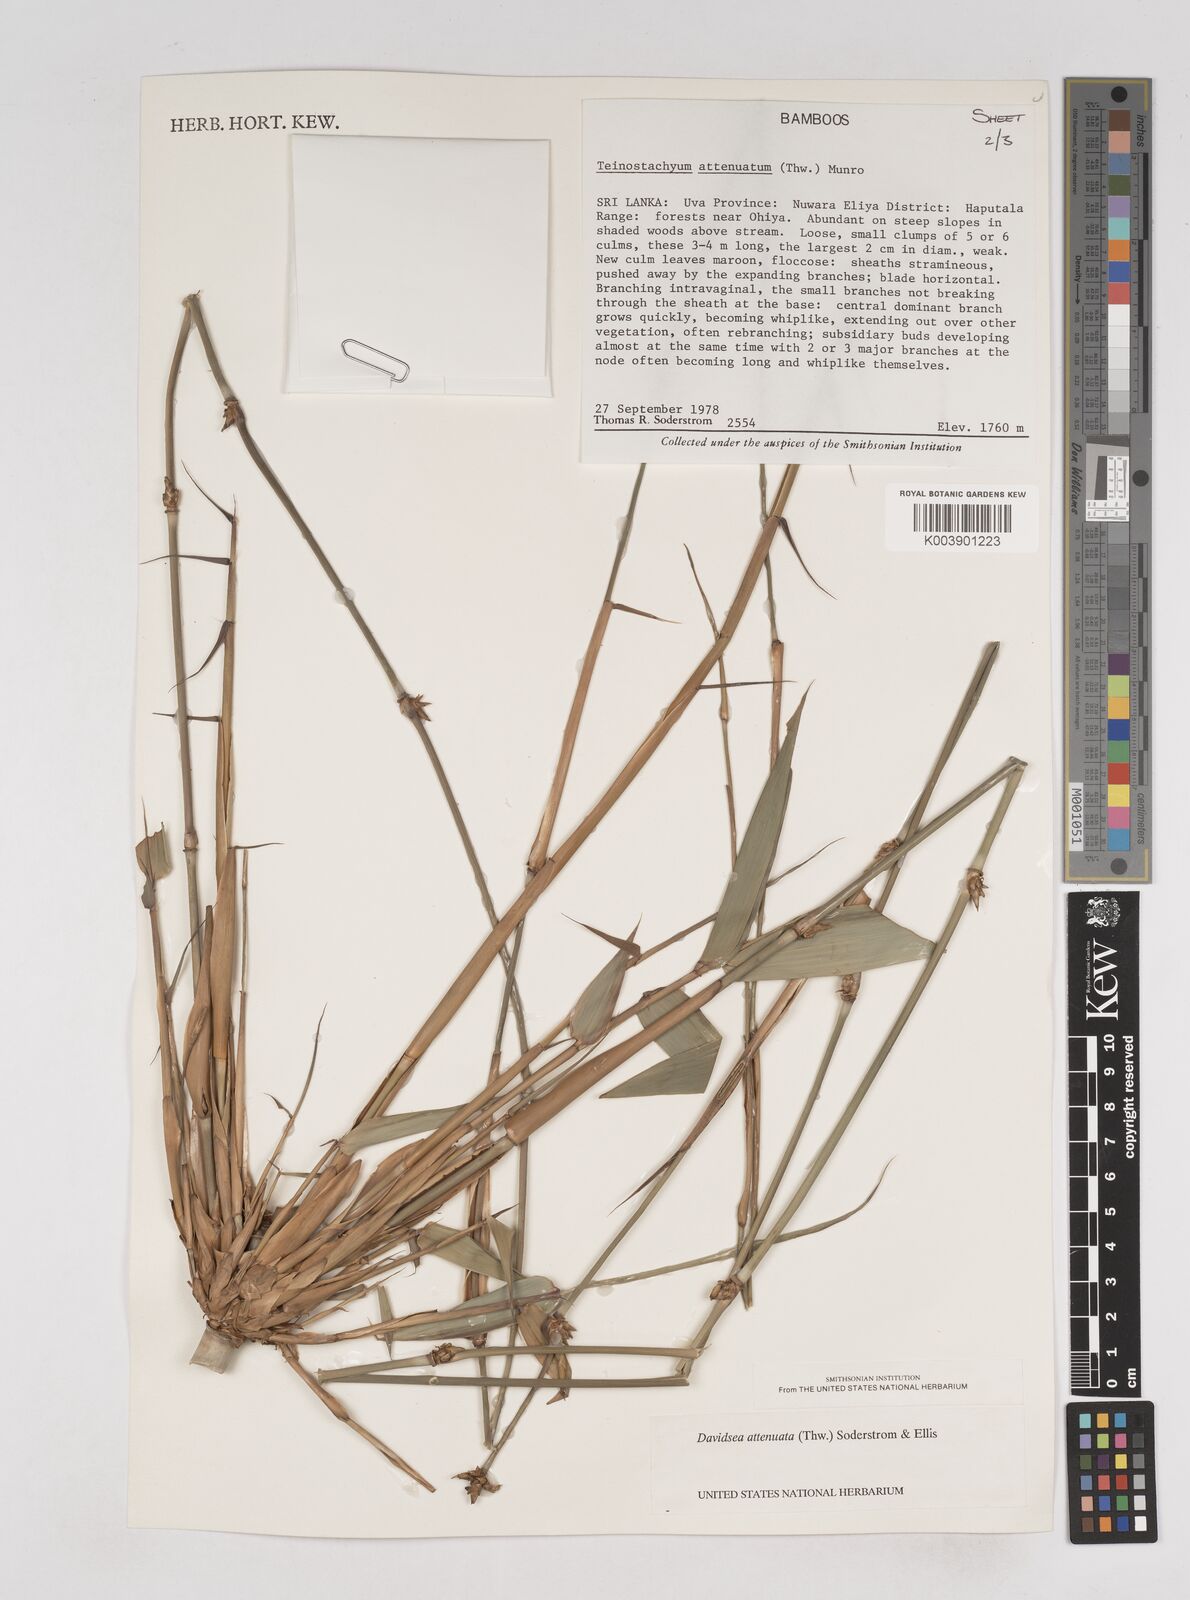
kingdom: Plantae
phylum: Tracheophyta
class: Liliopsida
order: Poales
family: Poaceae
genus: Davidsea
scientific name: Davidsea
